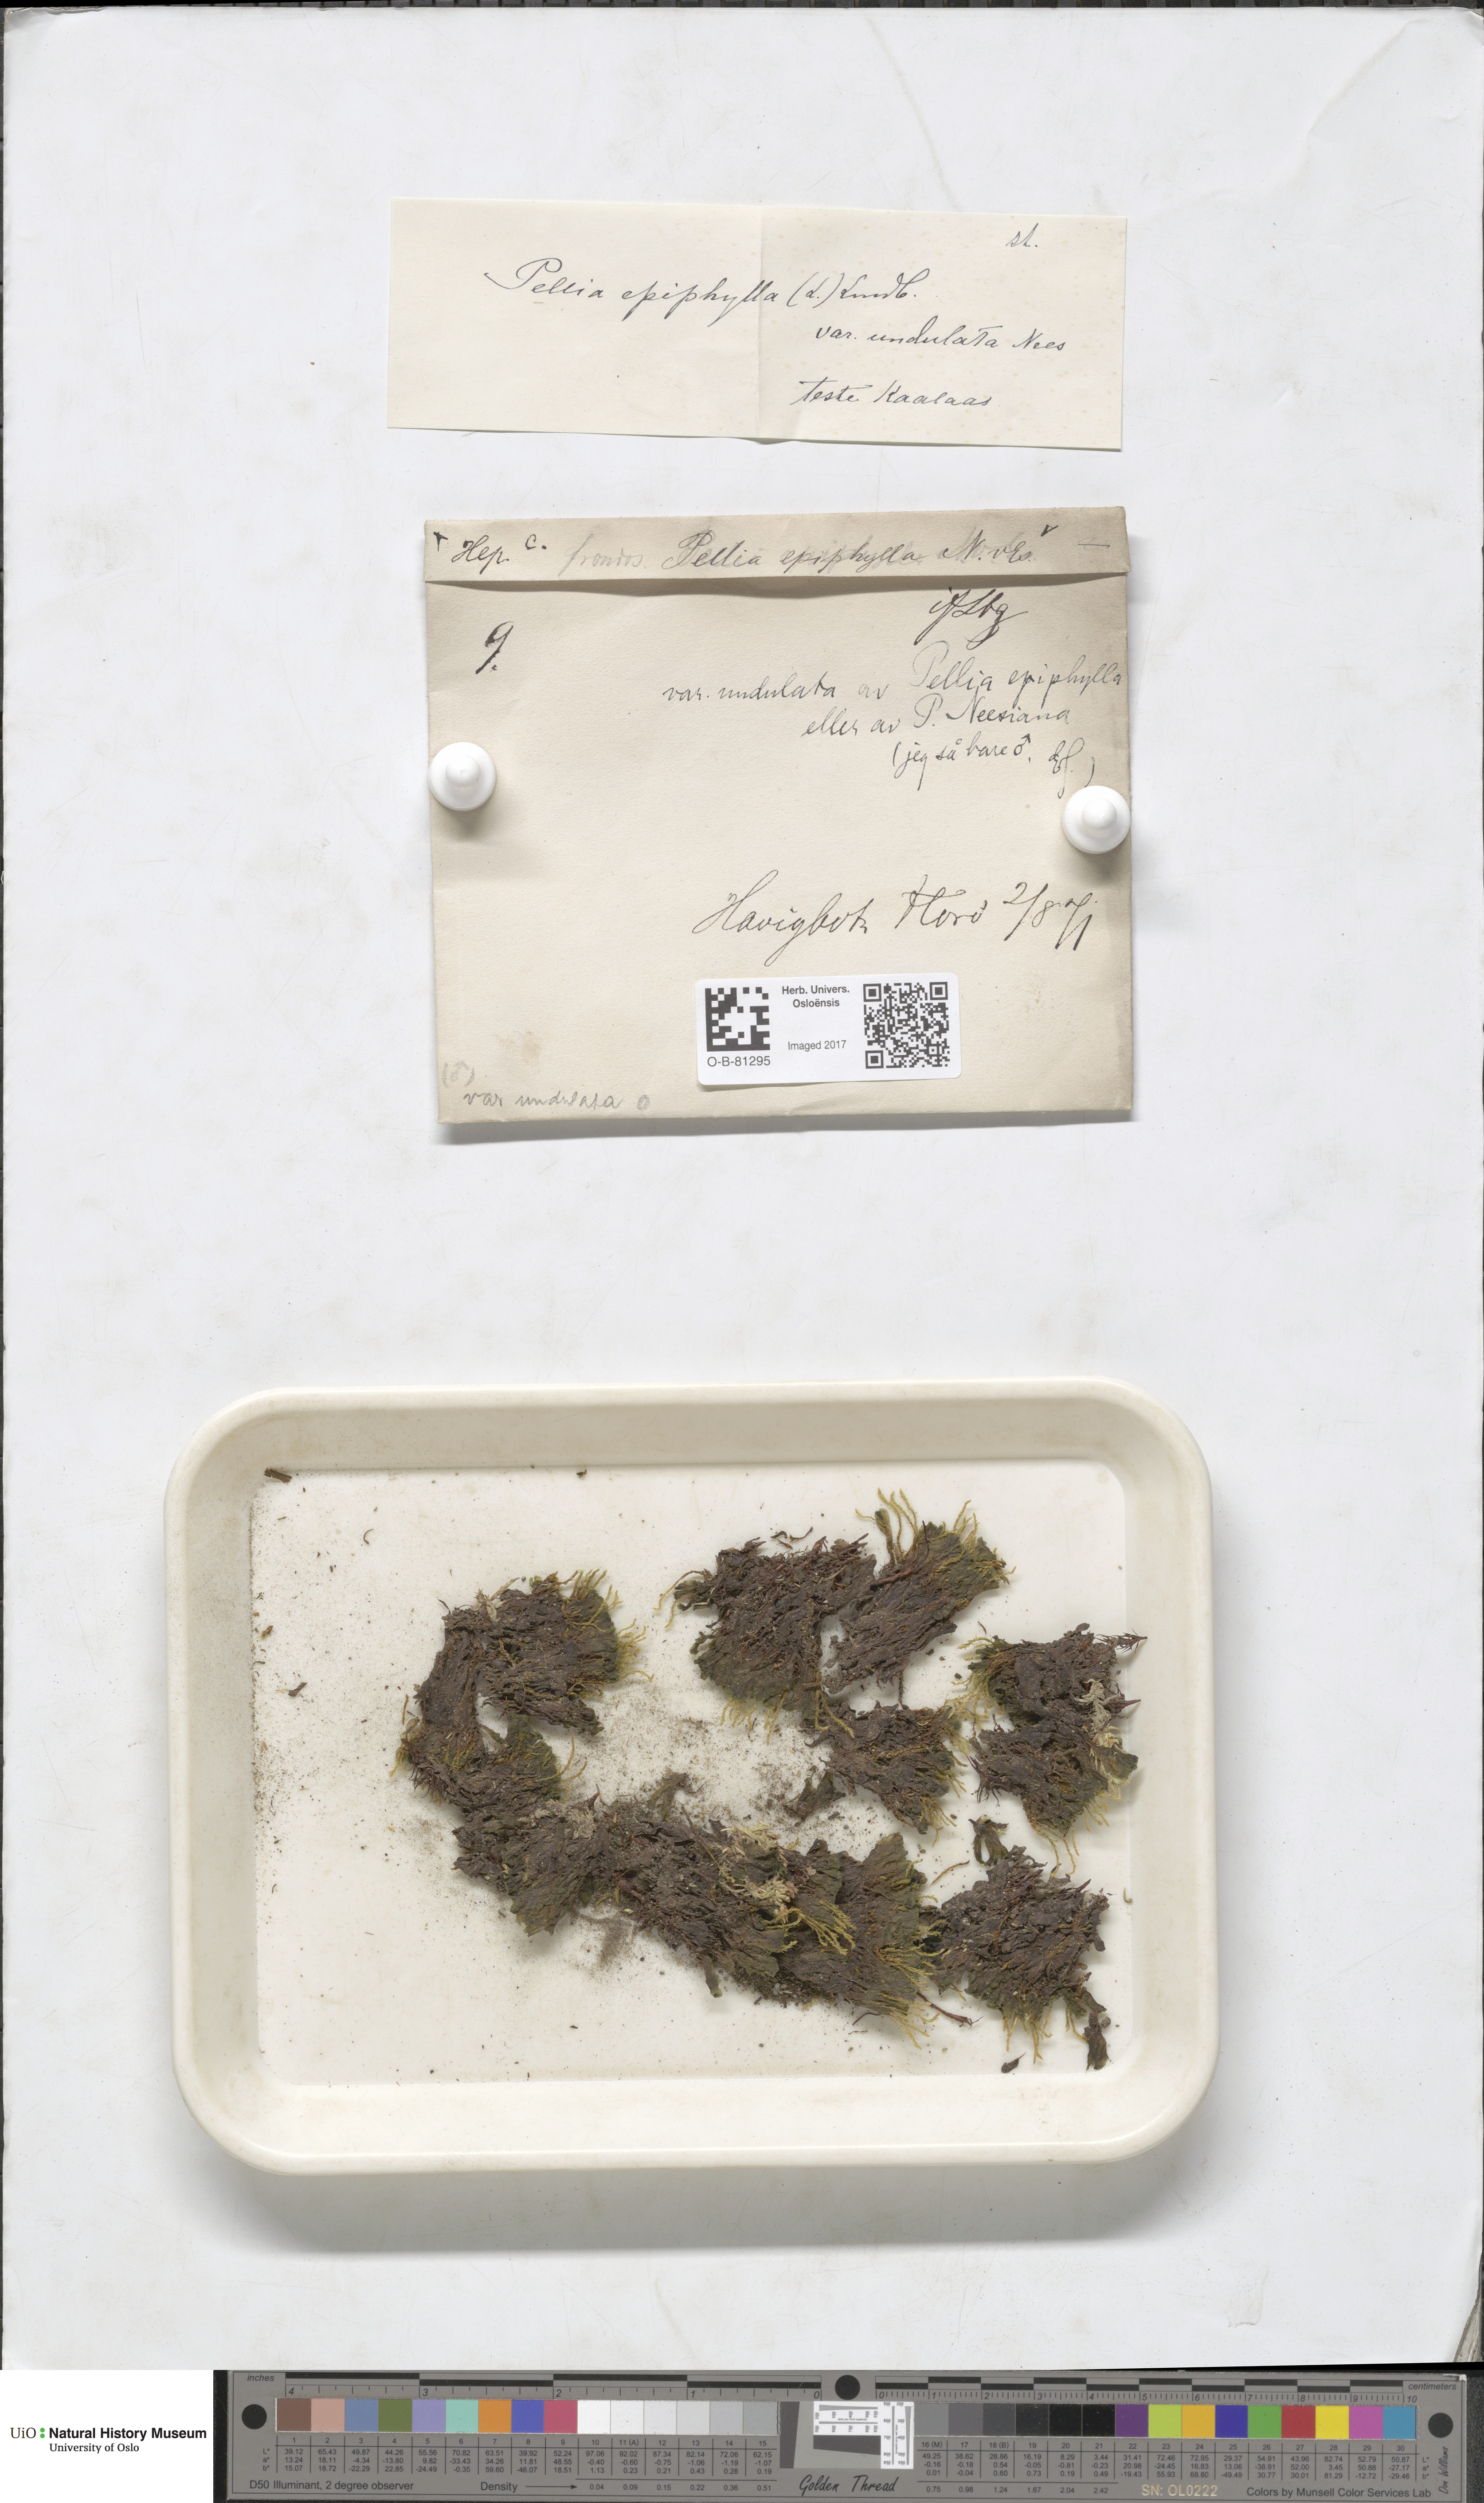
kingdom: Plantae
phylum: Marchantiophyta
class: Jungermanniopsida
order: Pelliales
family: Pelliaceae
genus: Pellia
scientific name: Pellia epiphylla
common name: Common pellia
